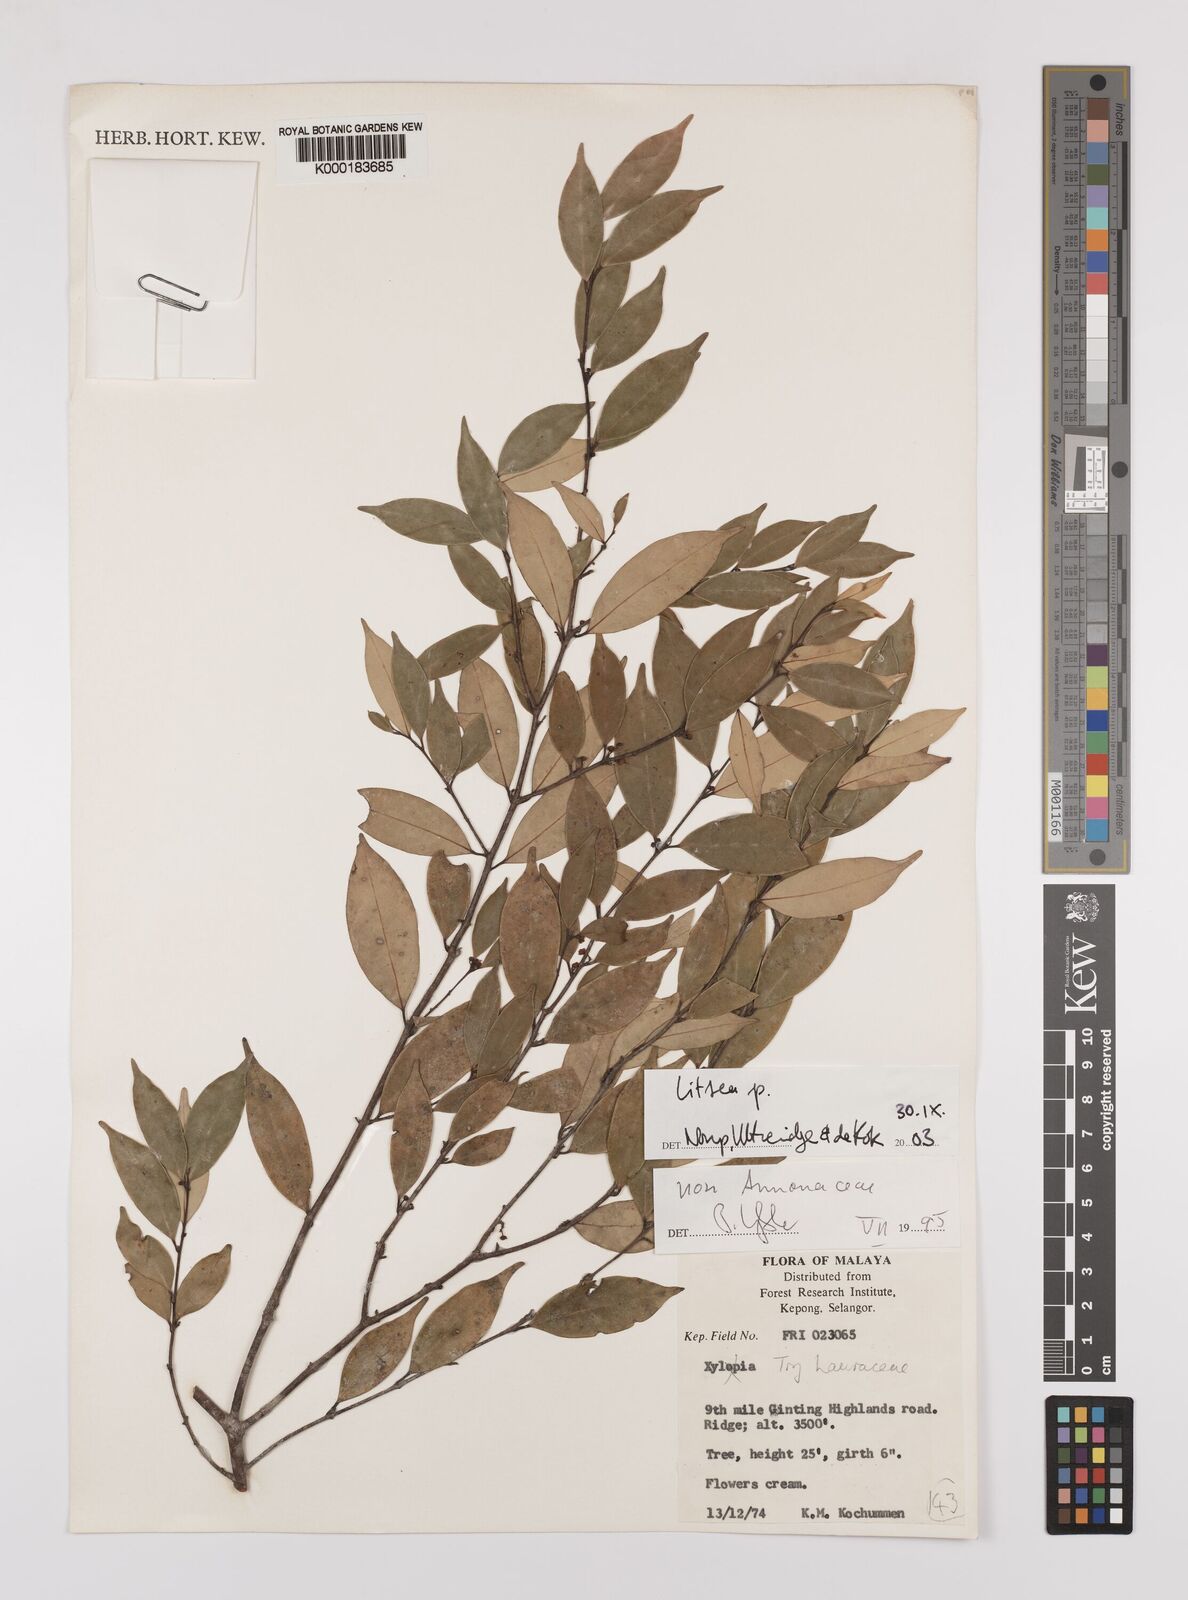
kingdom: Plantae
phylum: Tracheophyta
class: Magnoliopsida
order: Laurales
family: Lauraceae
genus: Litsea
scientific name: Litsea
